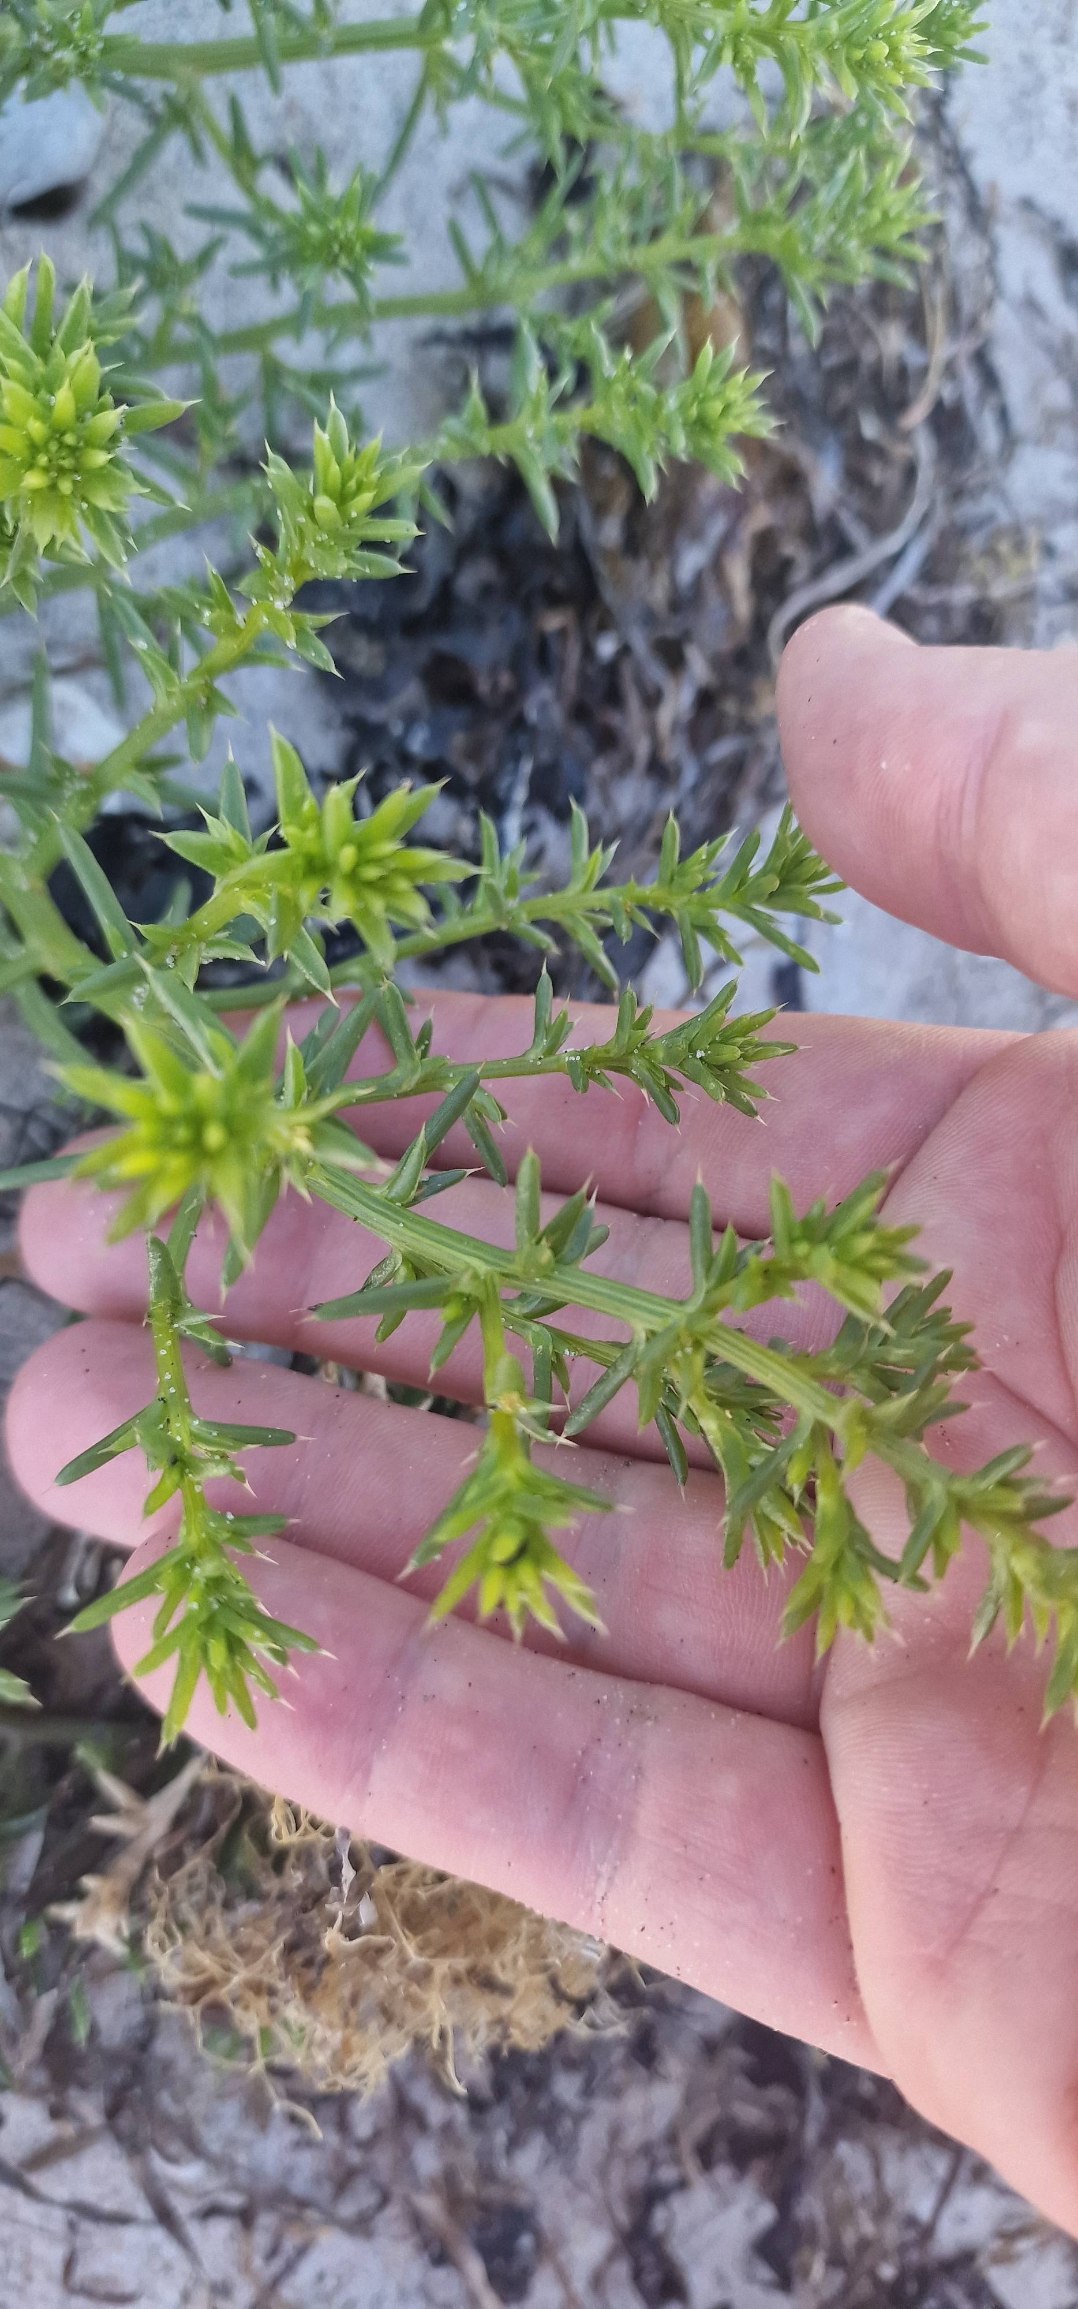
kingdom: Plantae
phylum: Tracheophyta
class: Magnoliopsida
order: Caryophyllales
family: Amaranthaceae
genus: Salsola
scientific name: Salsola kali
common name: Sodaurt
